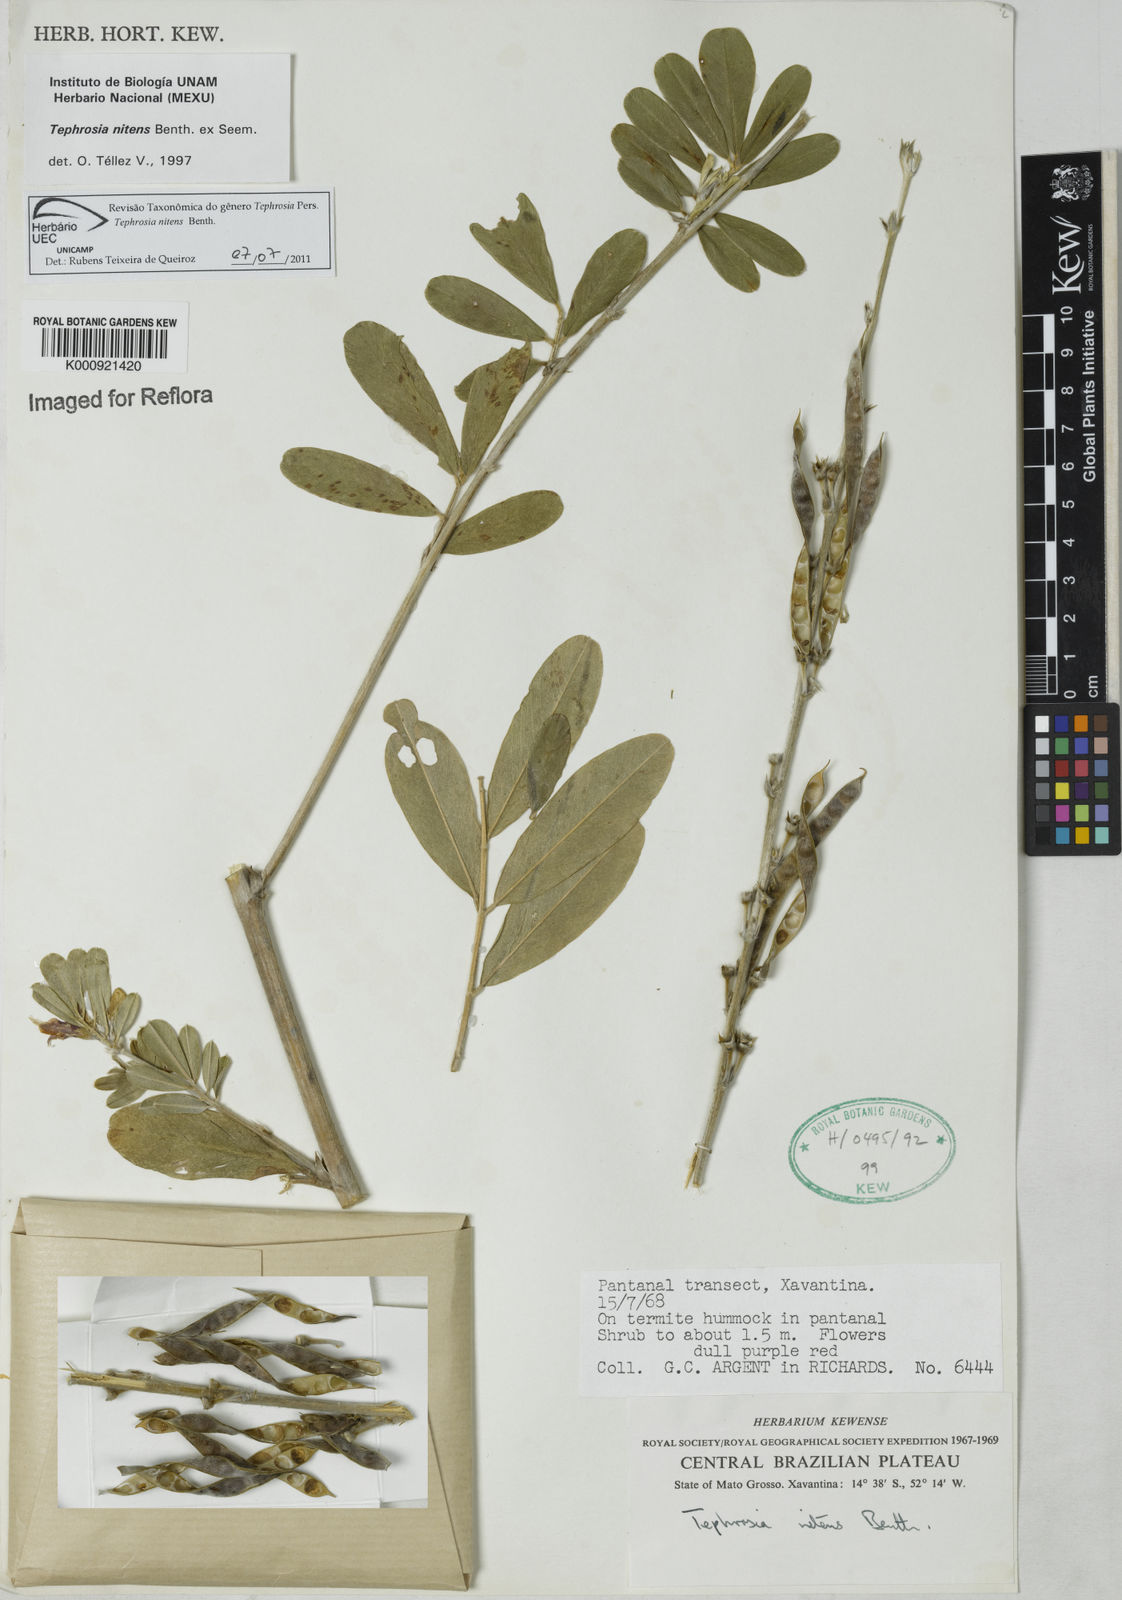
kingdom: Plantae
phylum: Tracheophyta
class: Magnoliopsida
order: Fabales
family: Fabaceae
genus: Tephrosia
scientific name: Tephrosia nitens
